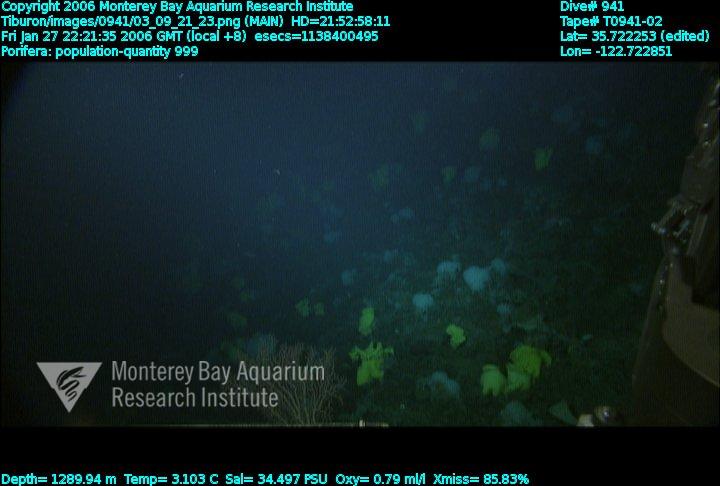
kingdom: Animalia
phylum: Porifera
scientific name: Porifera
